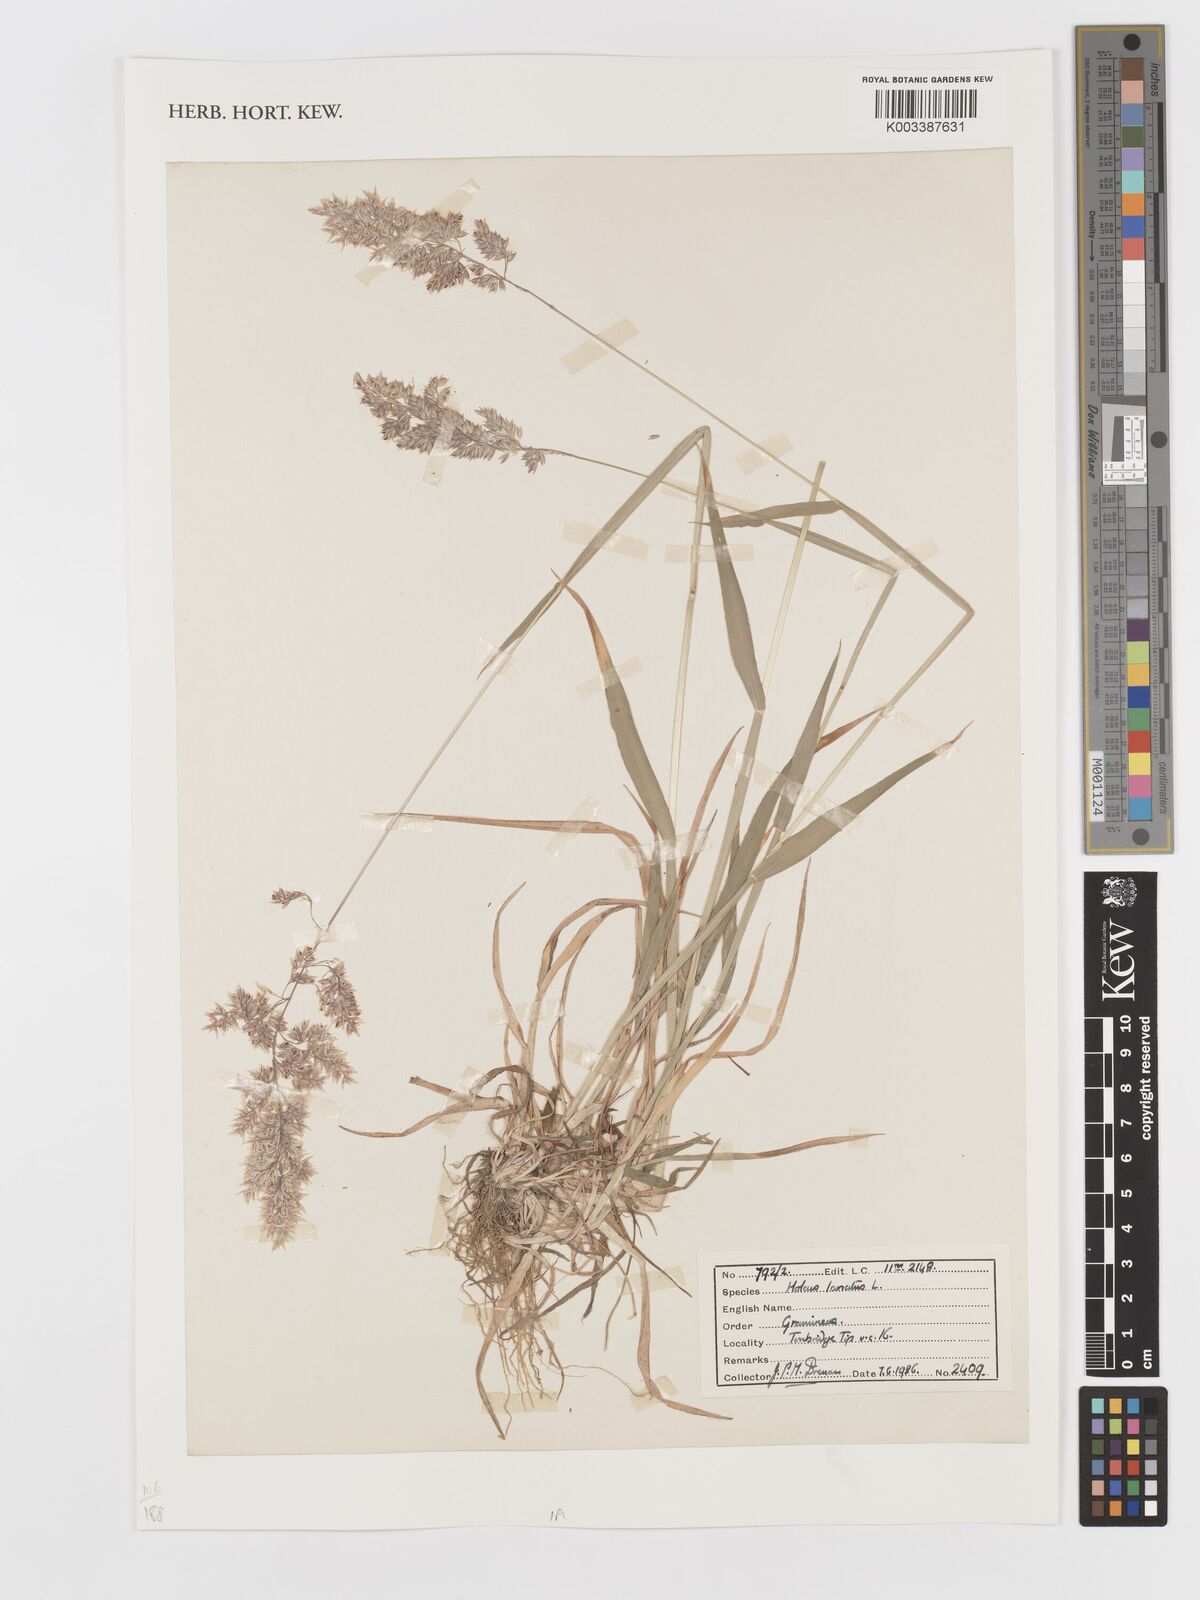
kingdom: Plantae
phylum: Tracheophyta
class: Liliopsida
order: Poales
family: Poaceae
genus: Holcus
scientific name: Holcus lanatus
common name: Yorkshire-fog
